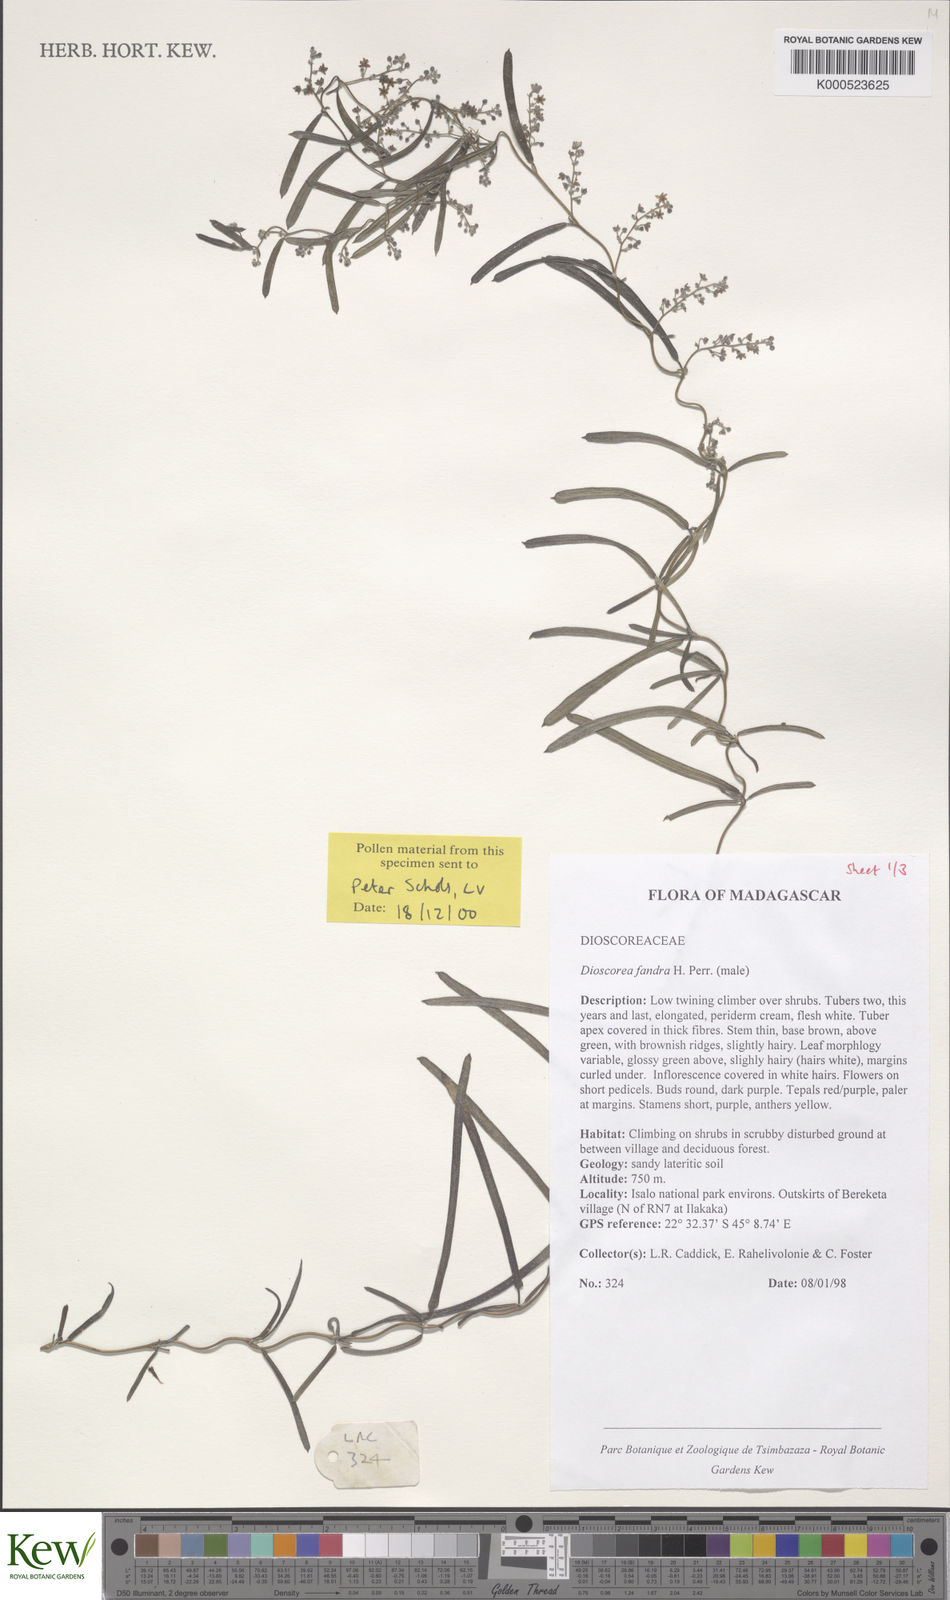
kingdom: Plantae
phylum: Tracheophyta
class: Liliopsida
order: Dioscoreales
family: Dioscoreaceae
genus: Dioscorea
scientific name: Dioscorea fandra
